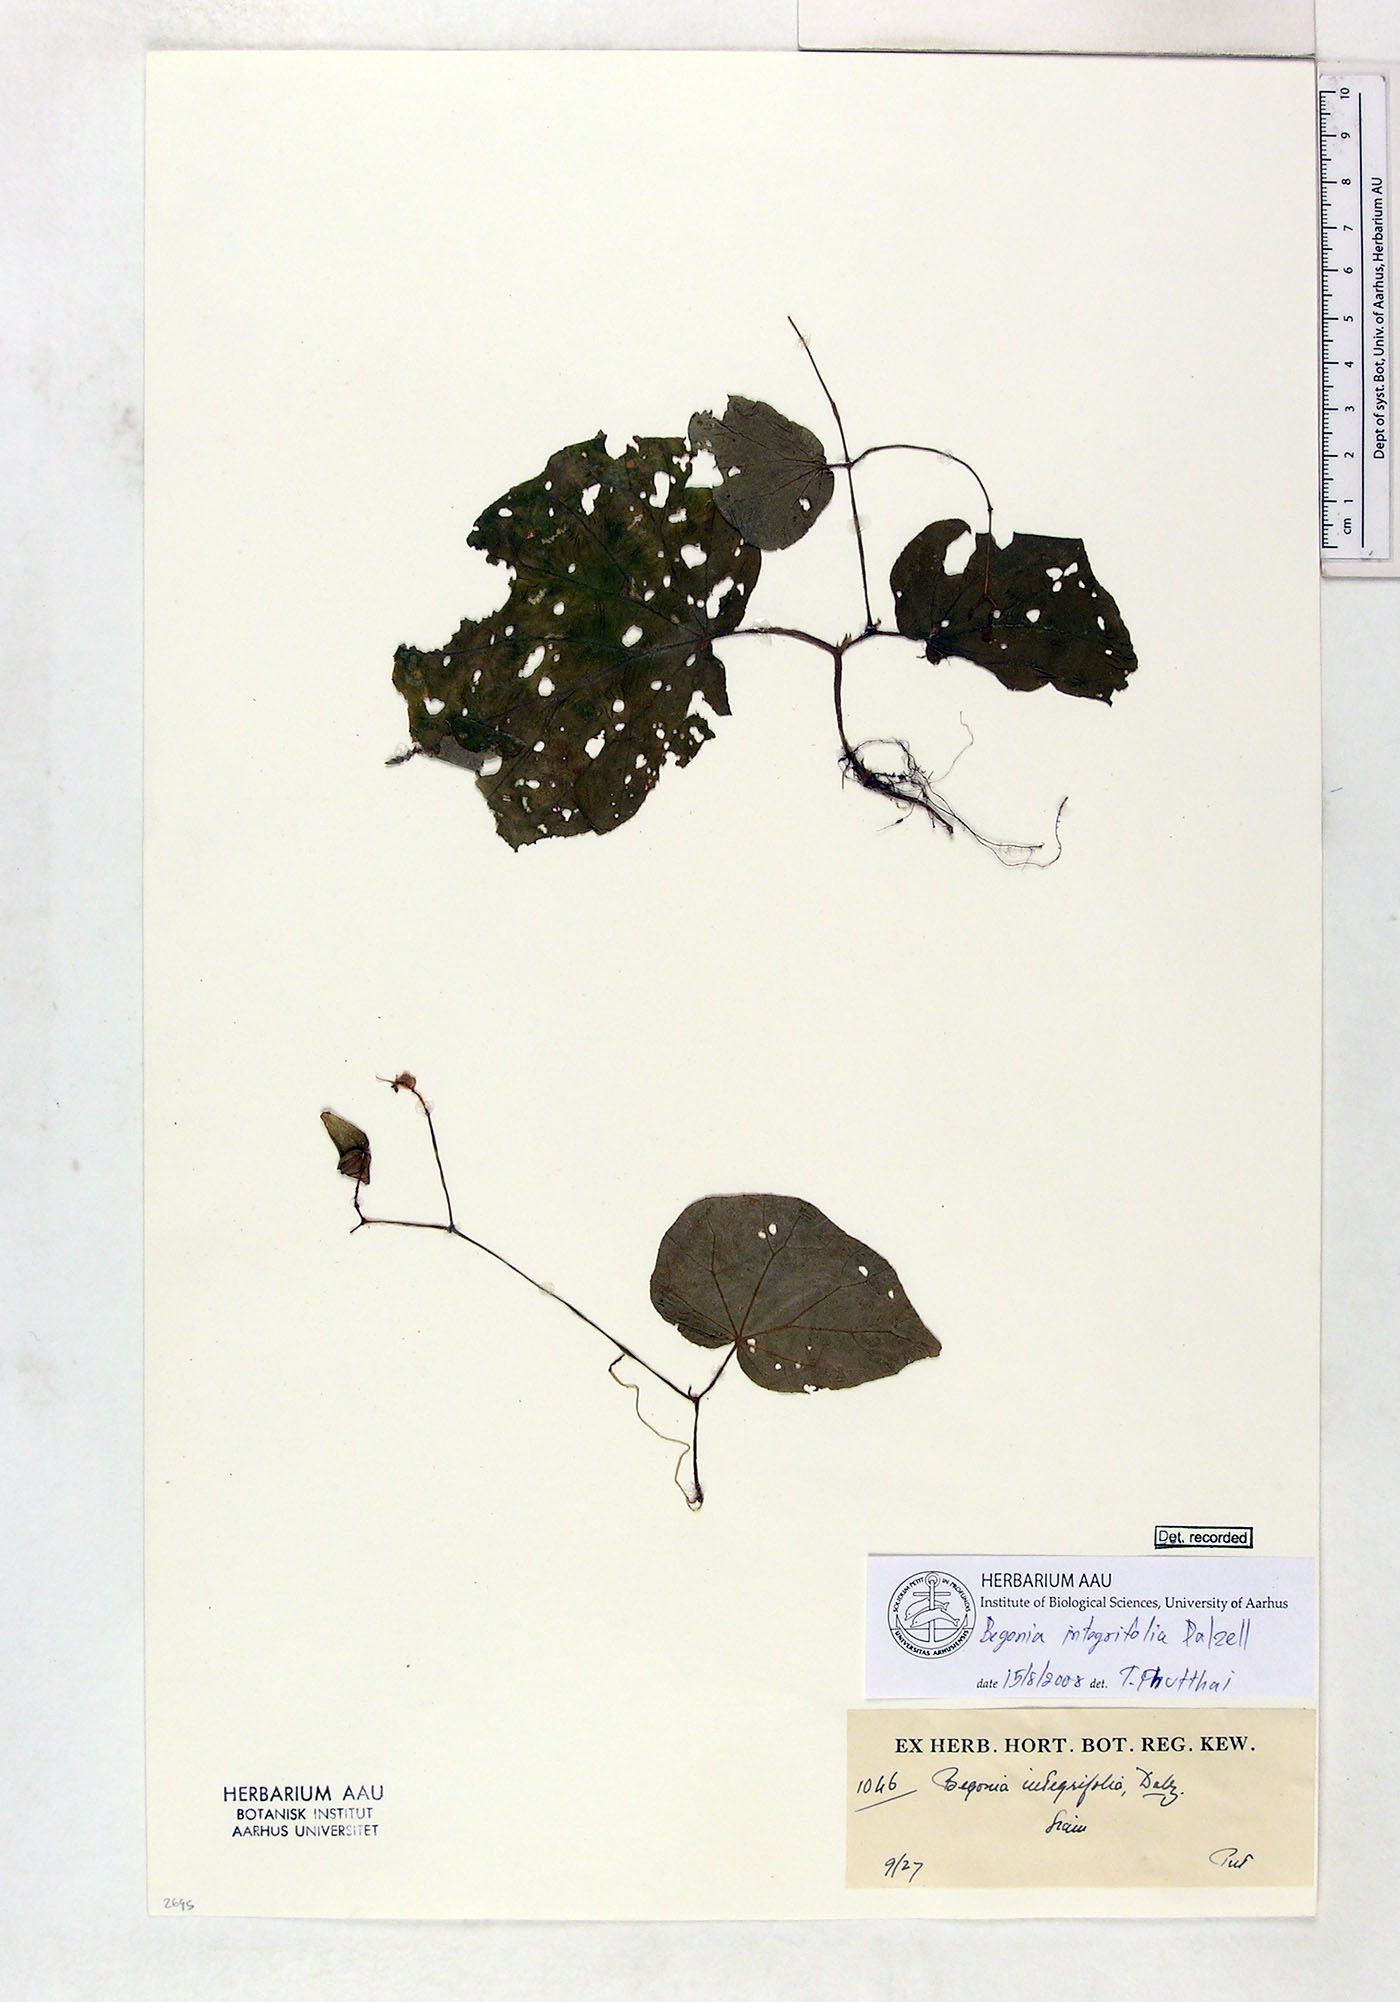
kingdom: Plantae
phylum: Tracheophyta
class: Magnoliopsida
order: Cucurbitales
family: Begoniaceae
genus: Begonia
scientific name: Begonia integrifolia
